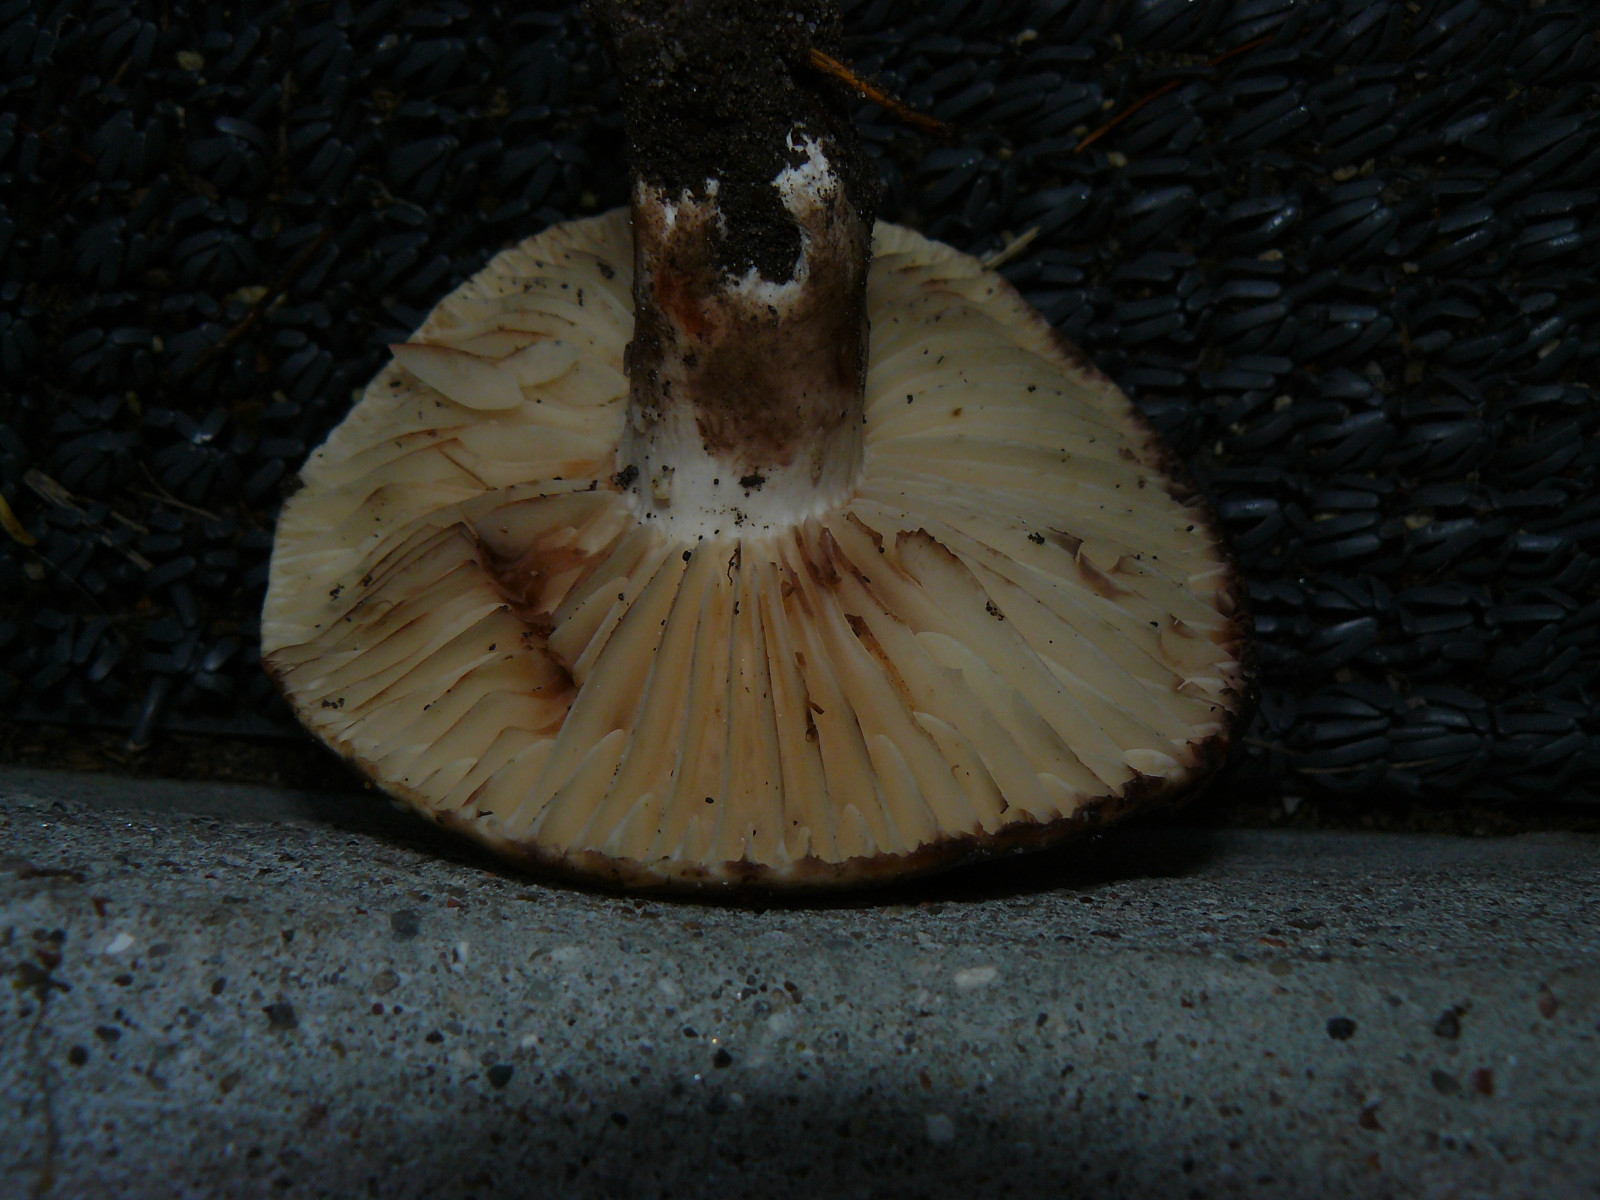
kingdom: Fungi
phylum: Basidiomycota
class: Agaricomycetes
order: Russulales
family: Russulaceae
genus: Russula
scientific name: Russula adusta
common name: sværtende skørhat
